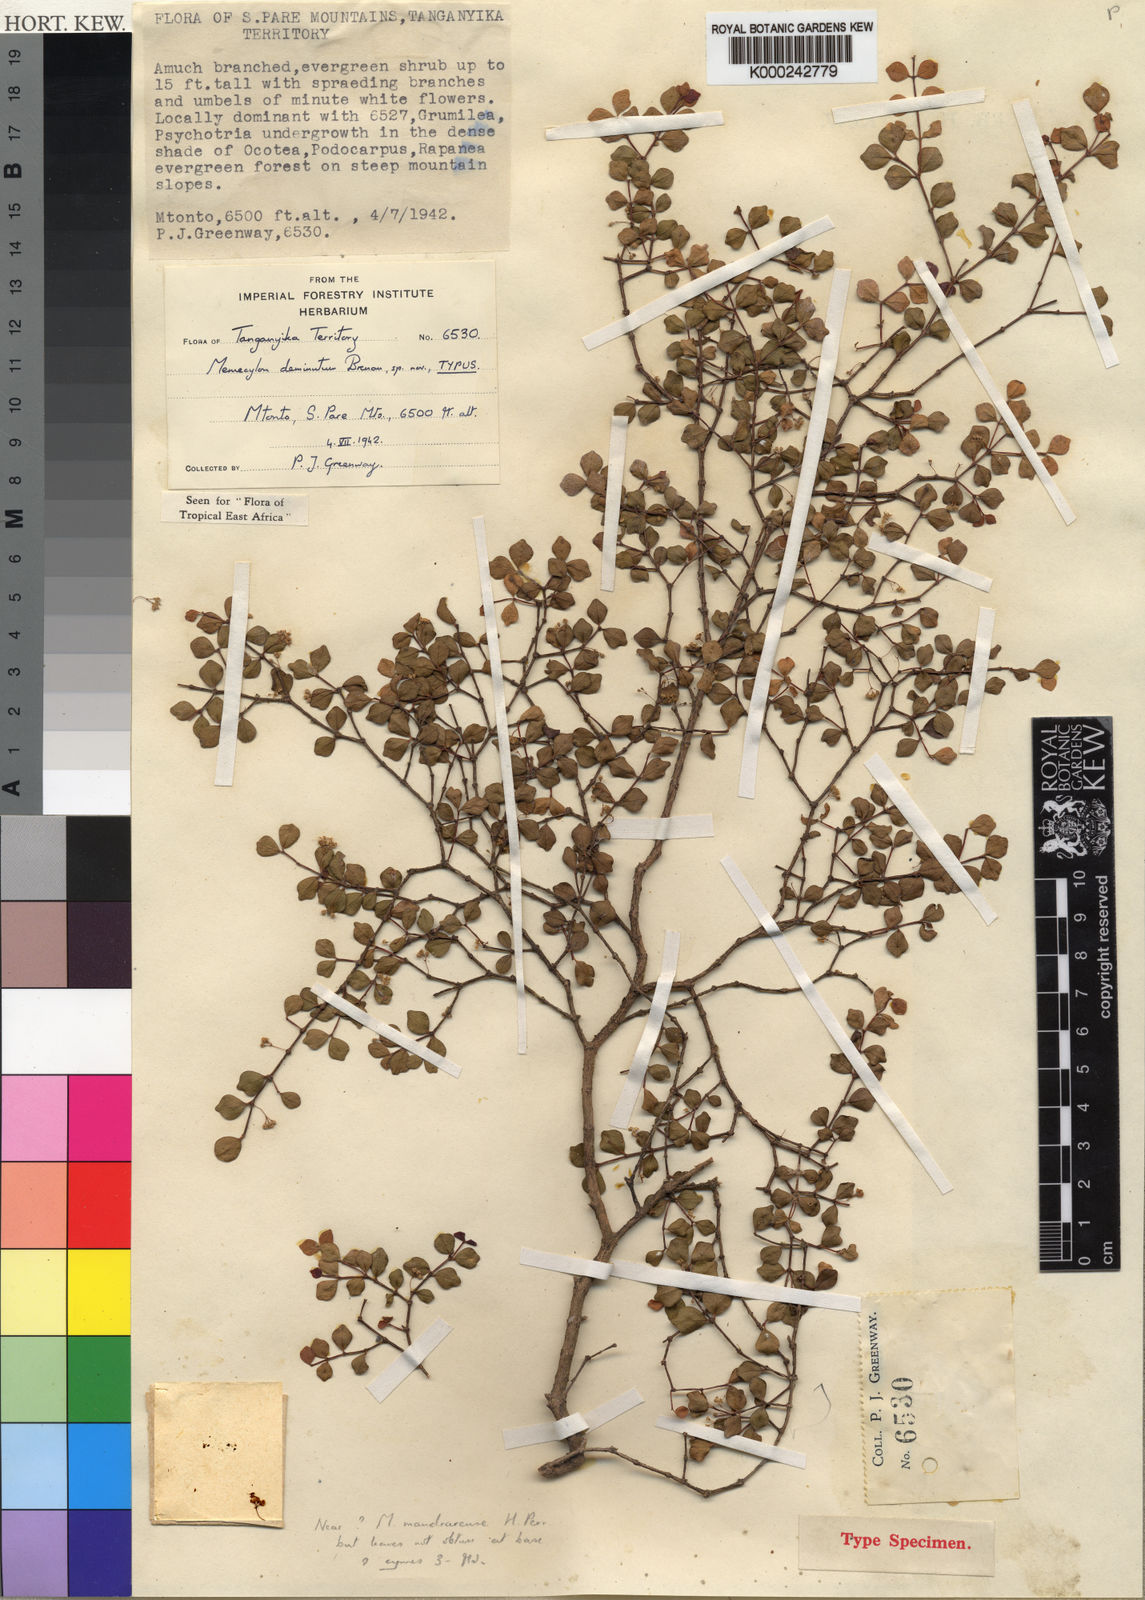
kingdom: Plantae
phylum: Tracheophyta
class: Magnoliopsida
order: Myrtales
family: Melastomataceae
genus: Memecylon
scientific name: Memecylon deminutum
